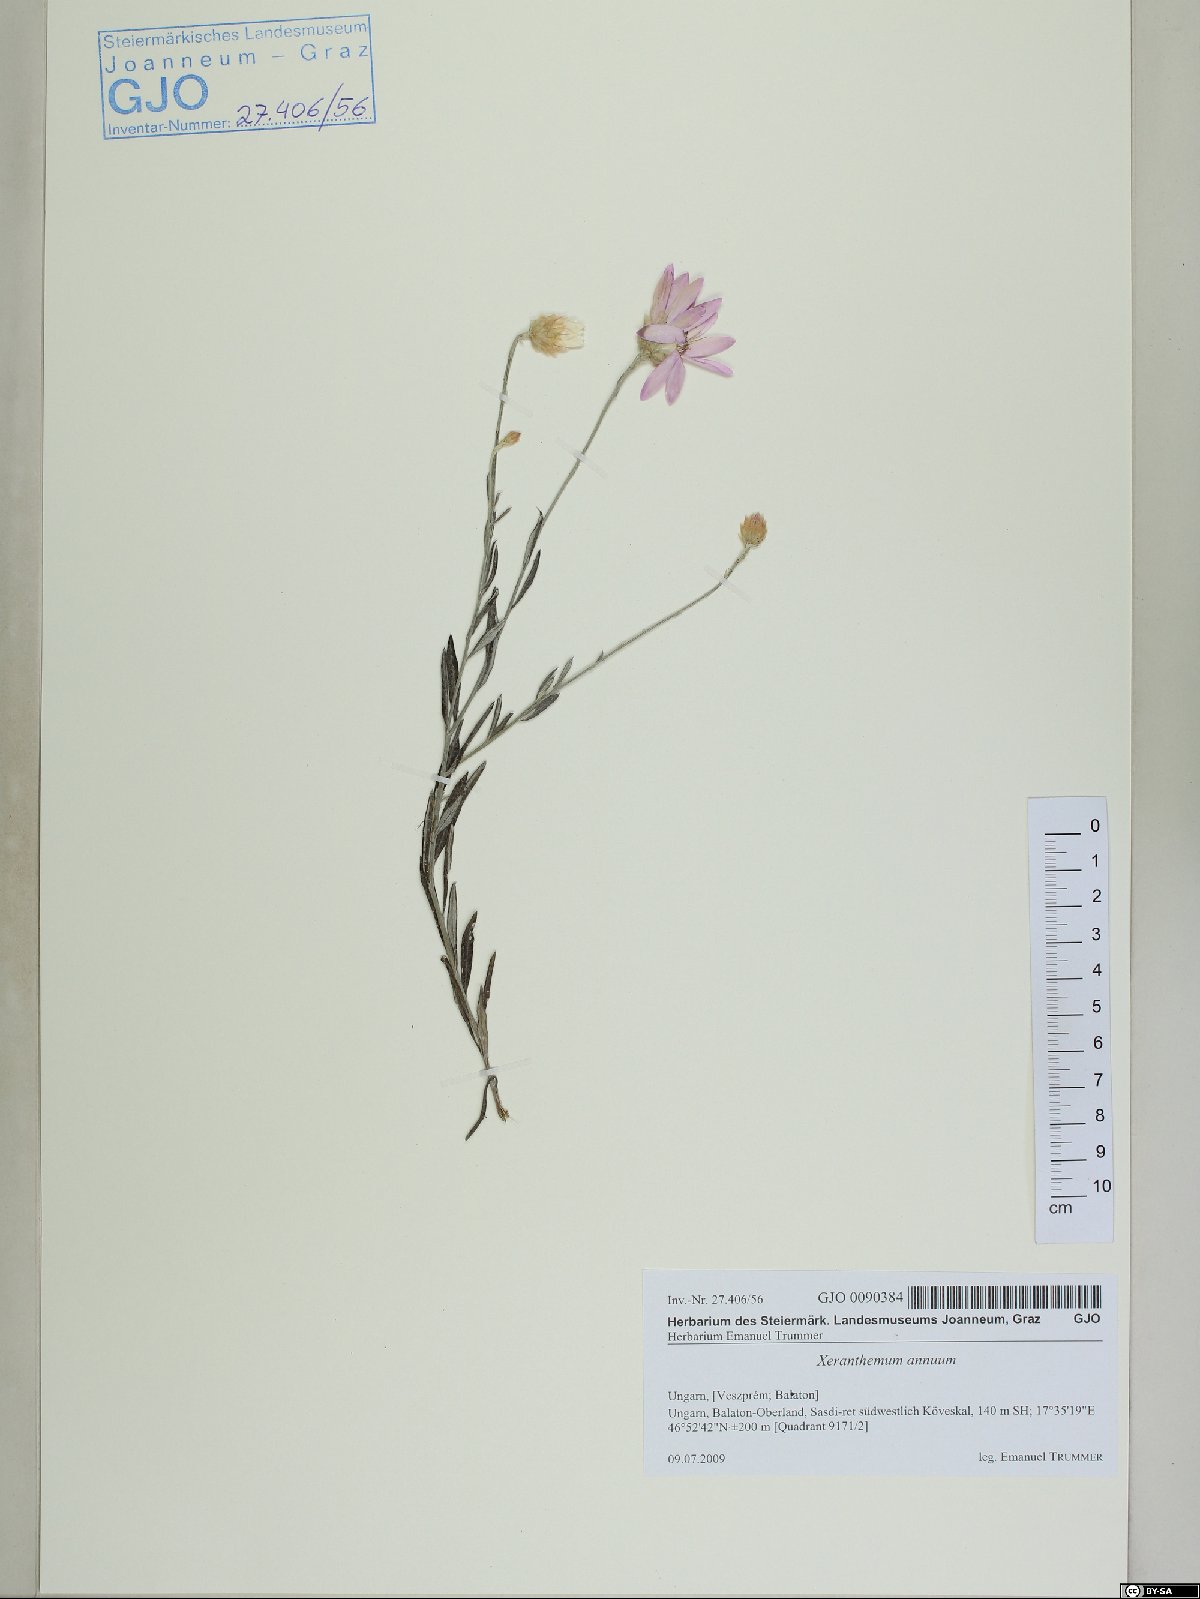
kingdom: Plantae
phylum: Tracheophyta
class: Magnoliopsida
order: Asterales
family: Asteraceae
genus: Xeranthemum
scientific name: Xeranthemum annuum
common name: Immortelle
